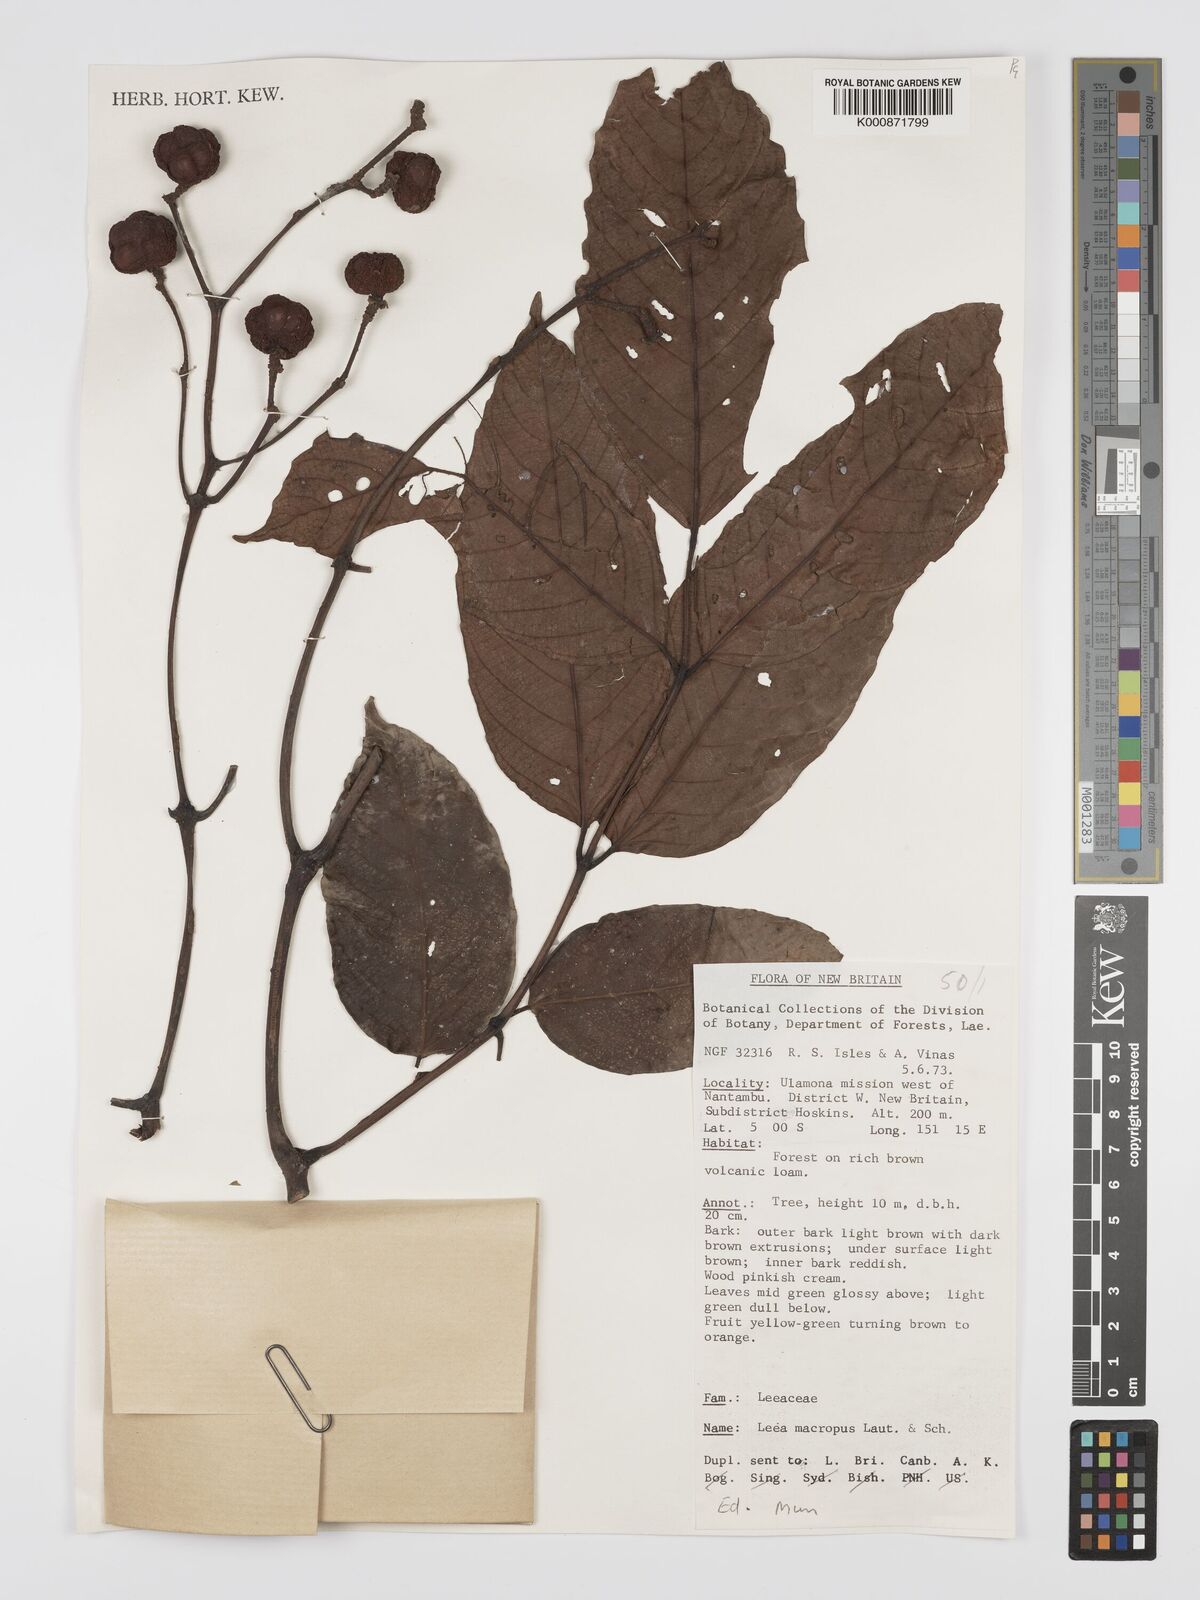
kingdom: Plantae
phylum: Tracheophyta
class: Magnoliopsida
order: Vitales
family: Vitaceae
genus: Leea
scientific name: Leea macropus
